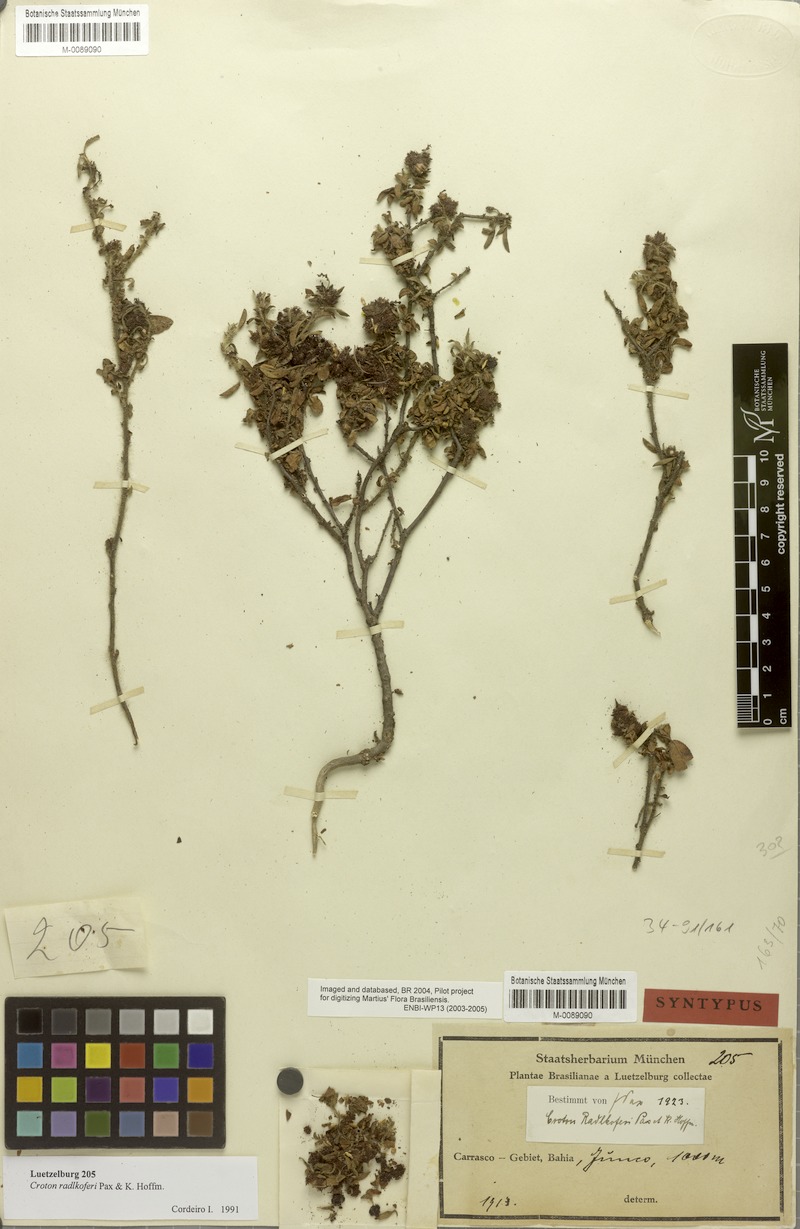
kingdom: Plantae
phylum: Tracheophyta
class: Magnoliopsida
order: Malpighiales
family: Euphorbiaceae
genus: Croton
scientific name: Croton radlkoferi
